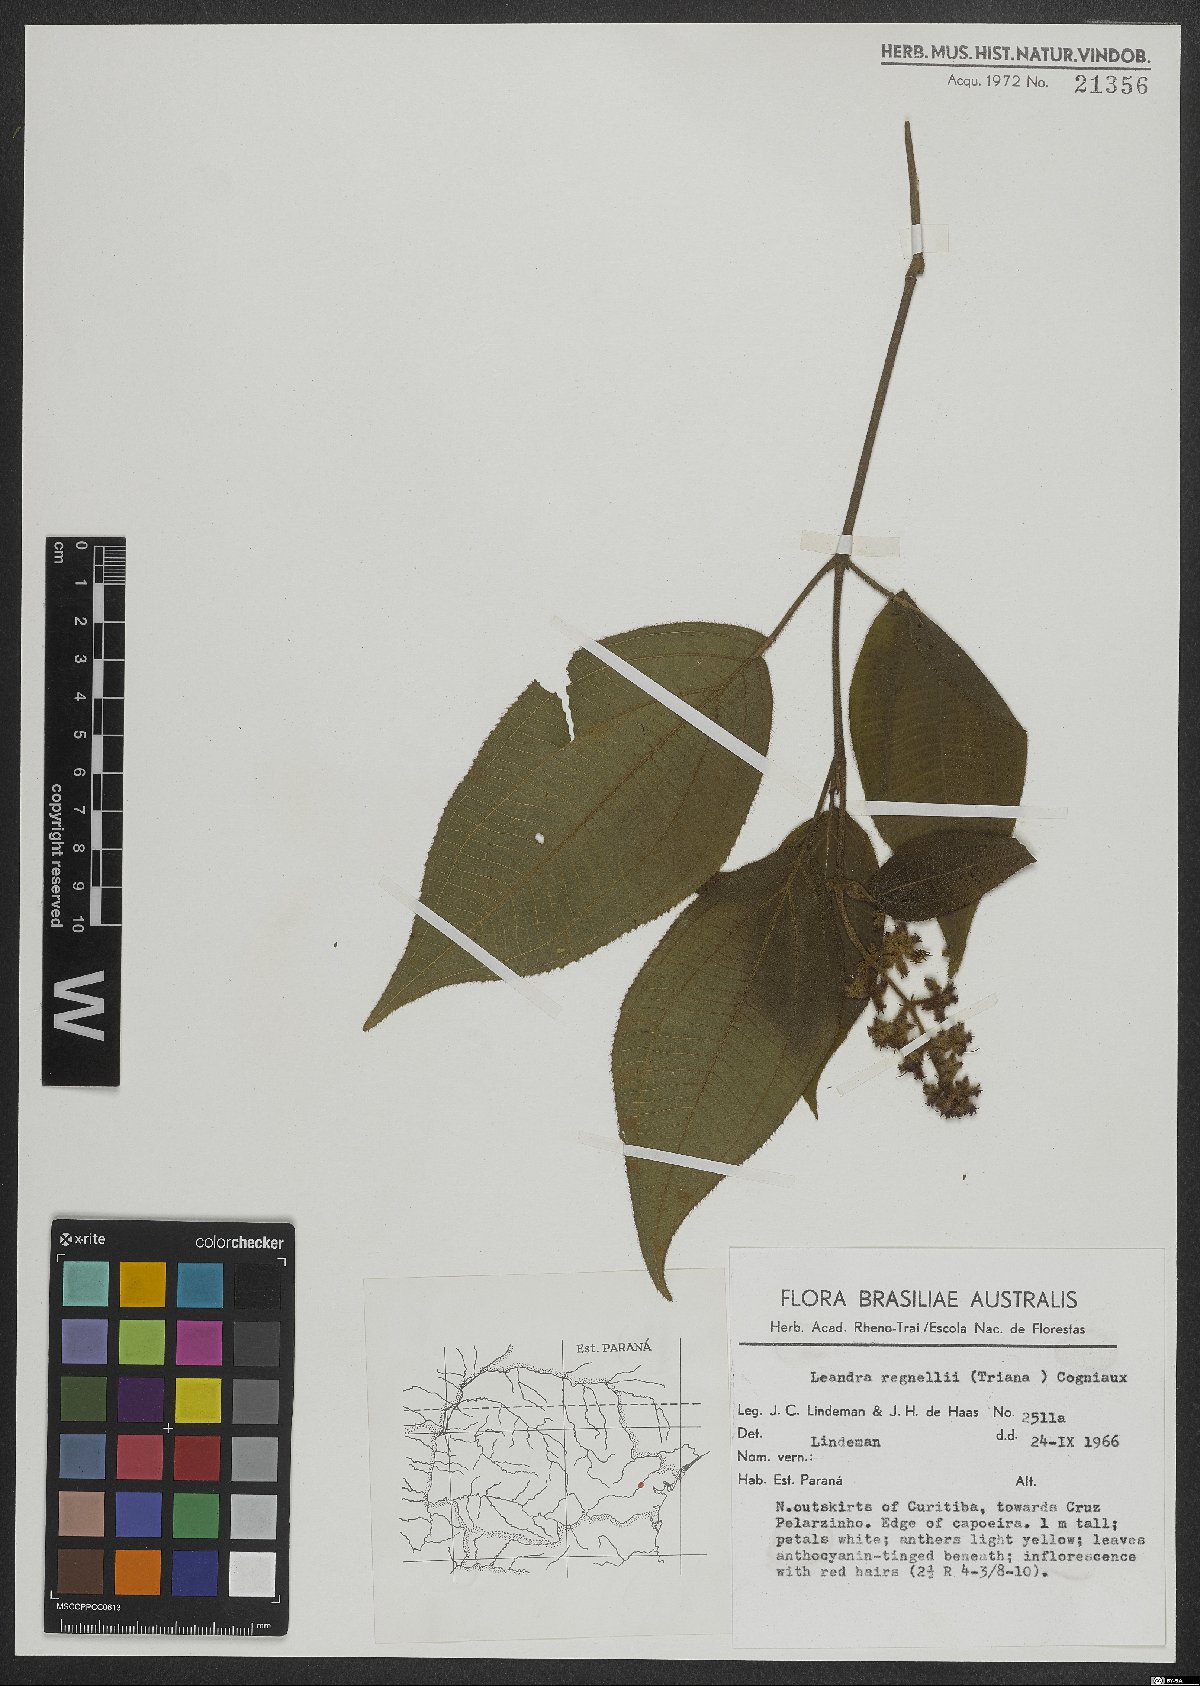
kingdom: Plantae
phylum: Tracheophyta
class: Magnoliopsida
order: Myrtales
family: Melastomataceae
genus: Miconia
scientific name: Miconia alterninervia
